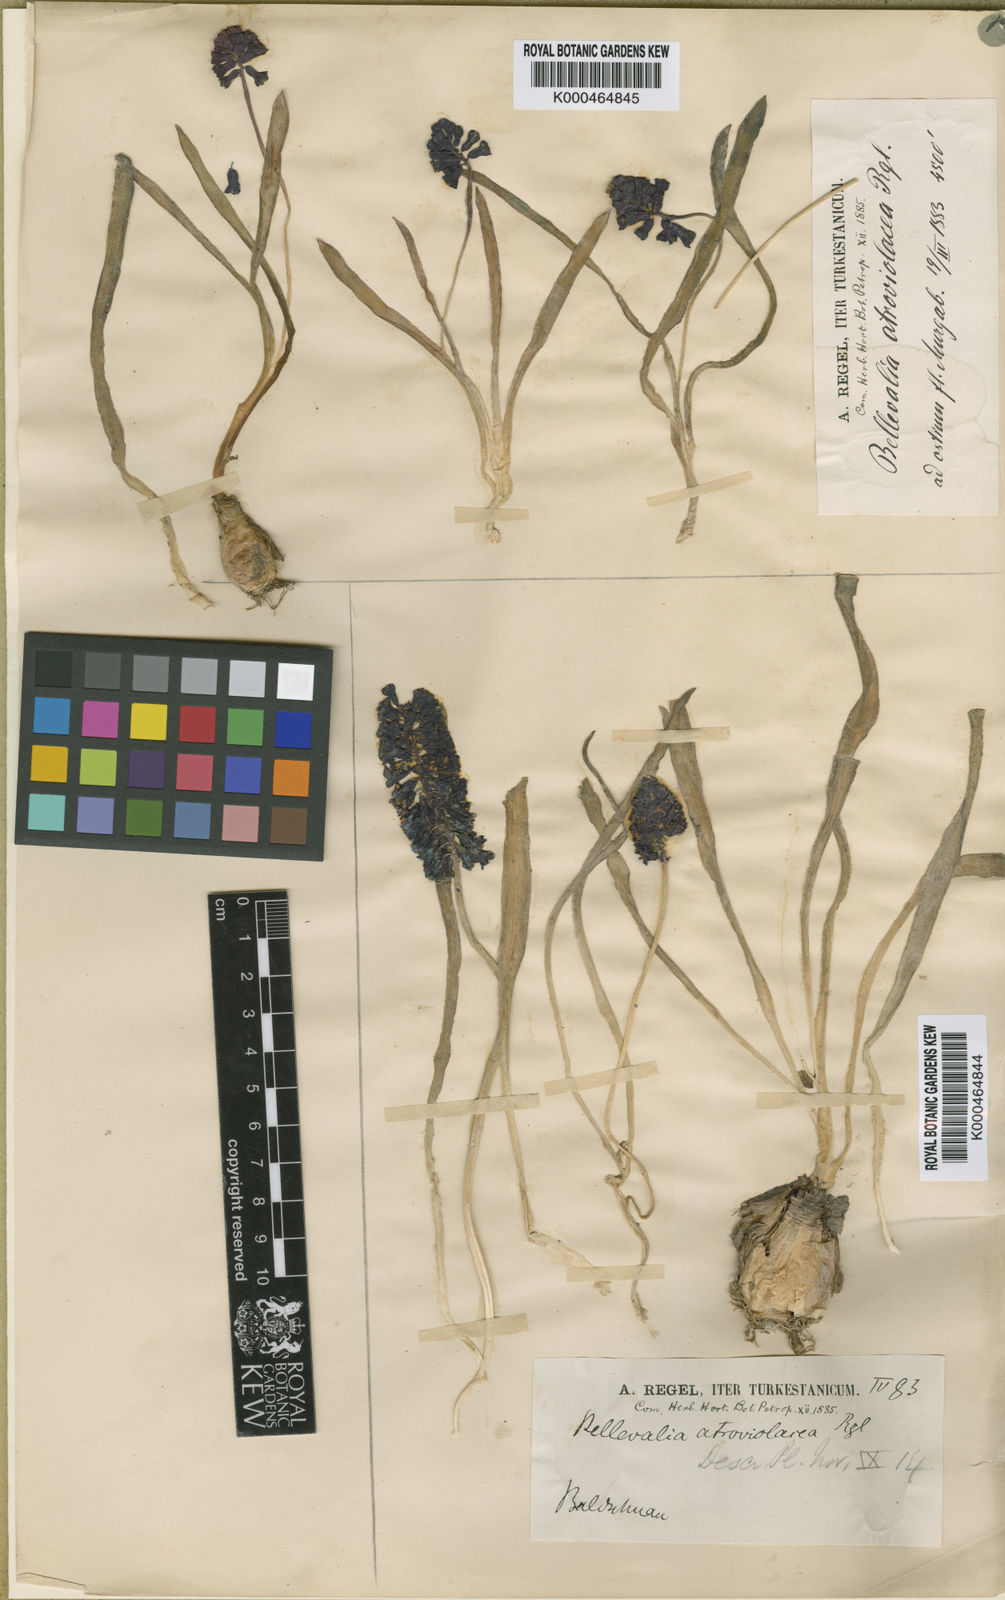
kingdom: Plantae
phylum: Tracheophyta
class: Liliopsida
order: Asparagales
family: Asparagaceae
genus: Bellevalia
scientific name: Bellevalia turkestanica
